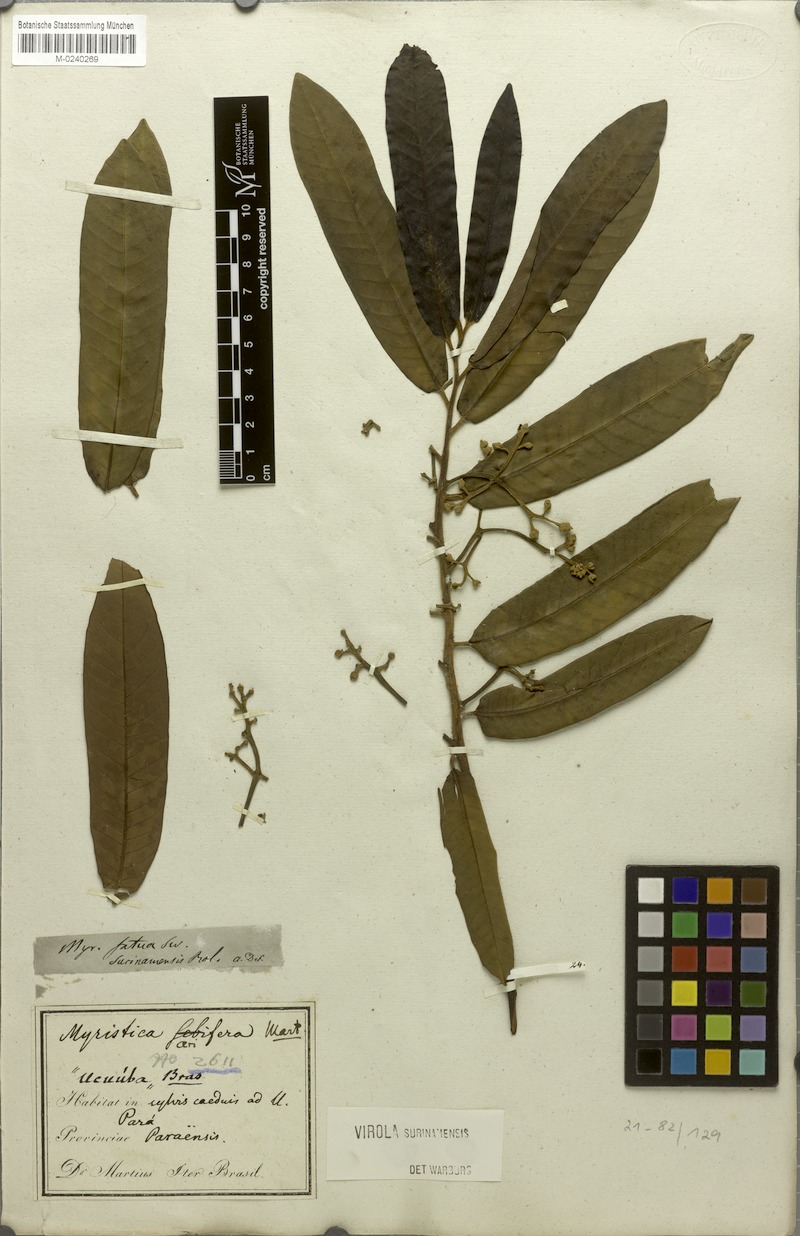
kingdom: Plantae
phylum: Tracheophyta
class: Magnoliopsida
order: Magnoliales
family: Myristicaceae
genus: Virola
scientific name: Virola surinamensis
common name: Baboonwood
